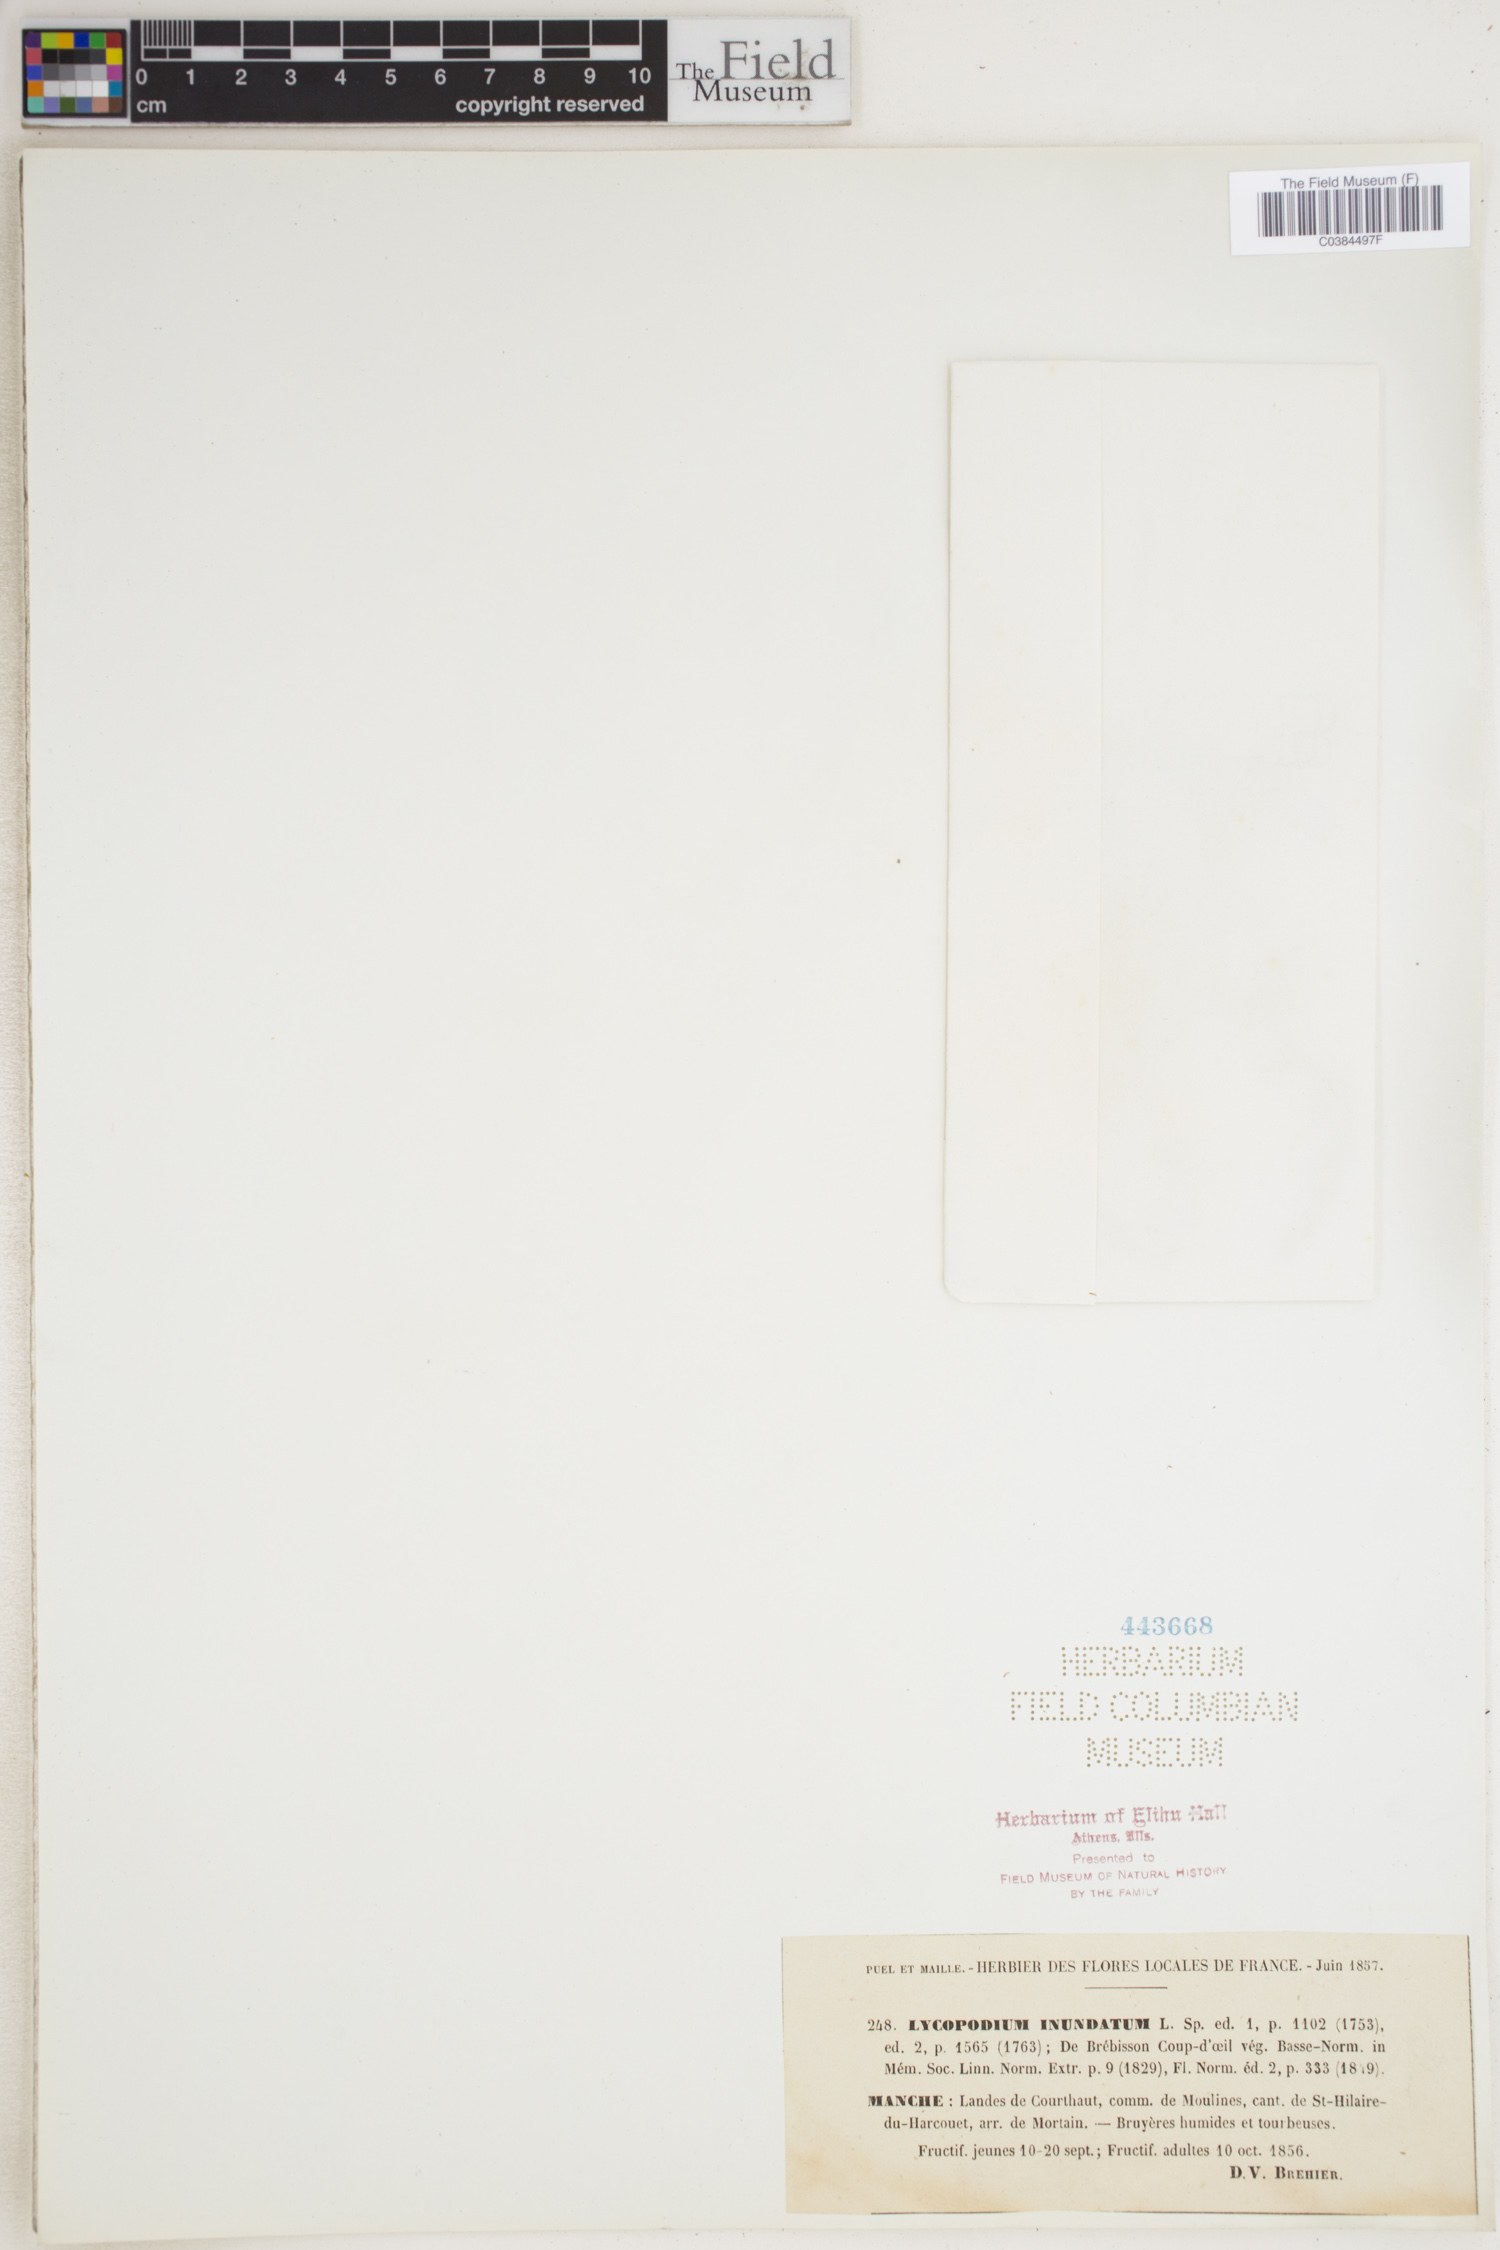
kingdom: Plantae
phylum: Tracheophyta
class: Lycopodiopsida
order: Lycopodiales
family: Lycopodiaceae
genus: Lycopodiella
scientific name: Lycopodiella inundata
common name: Marsh clubmoss
